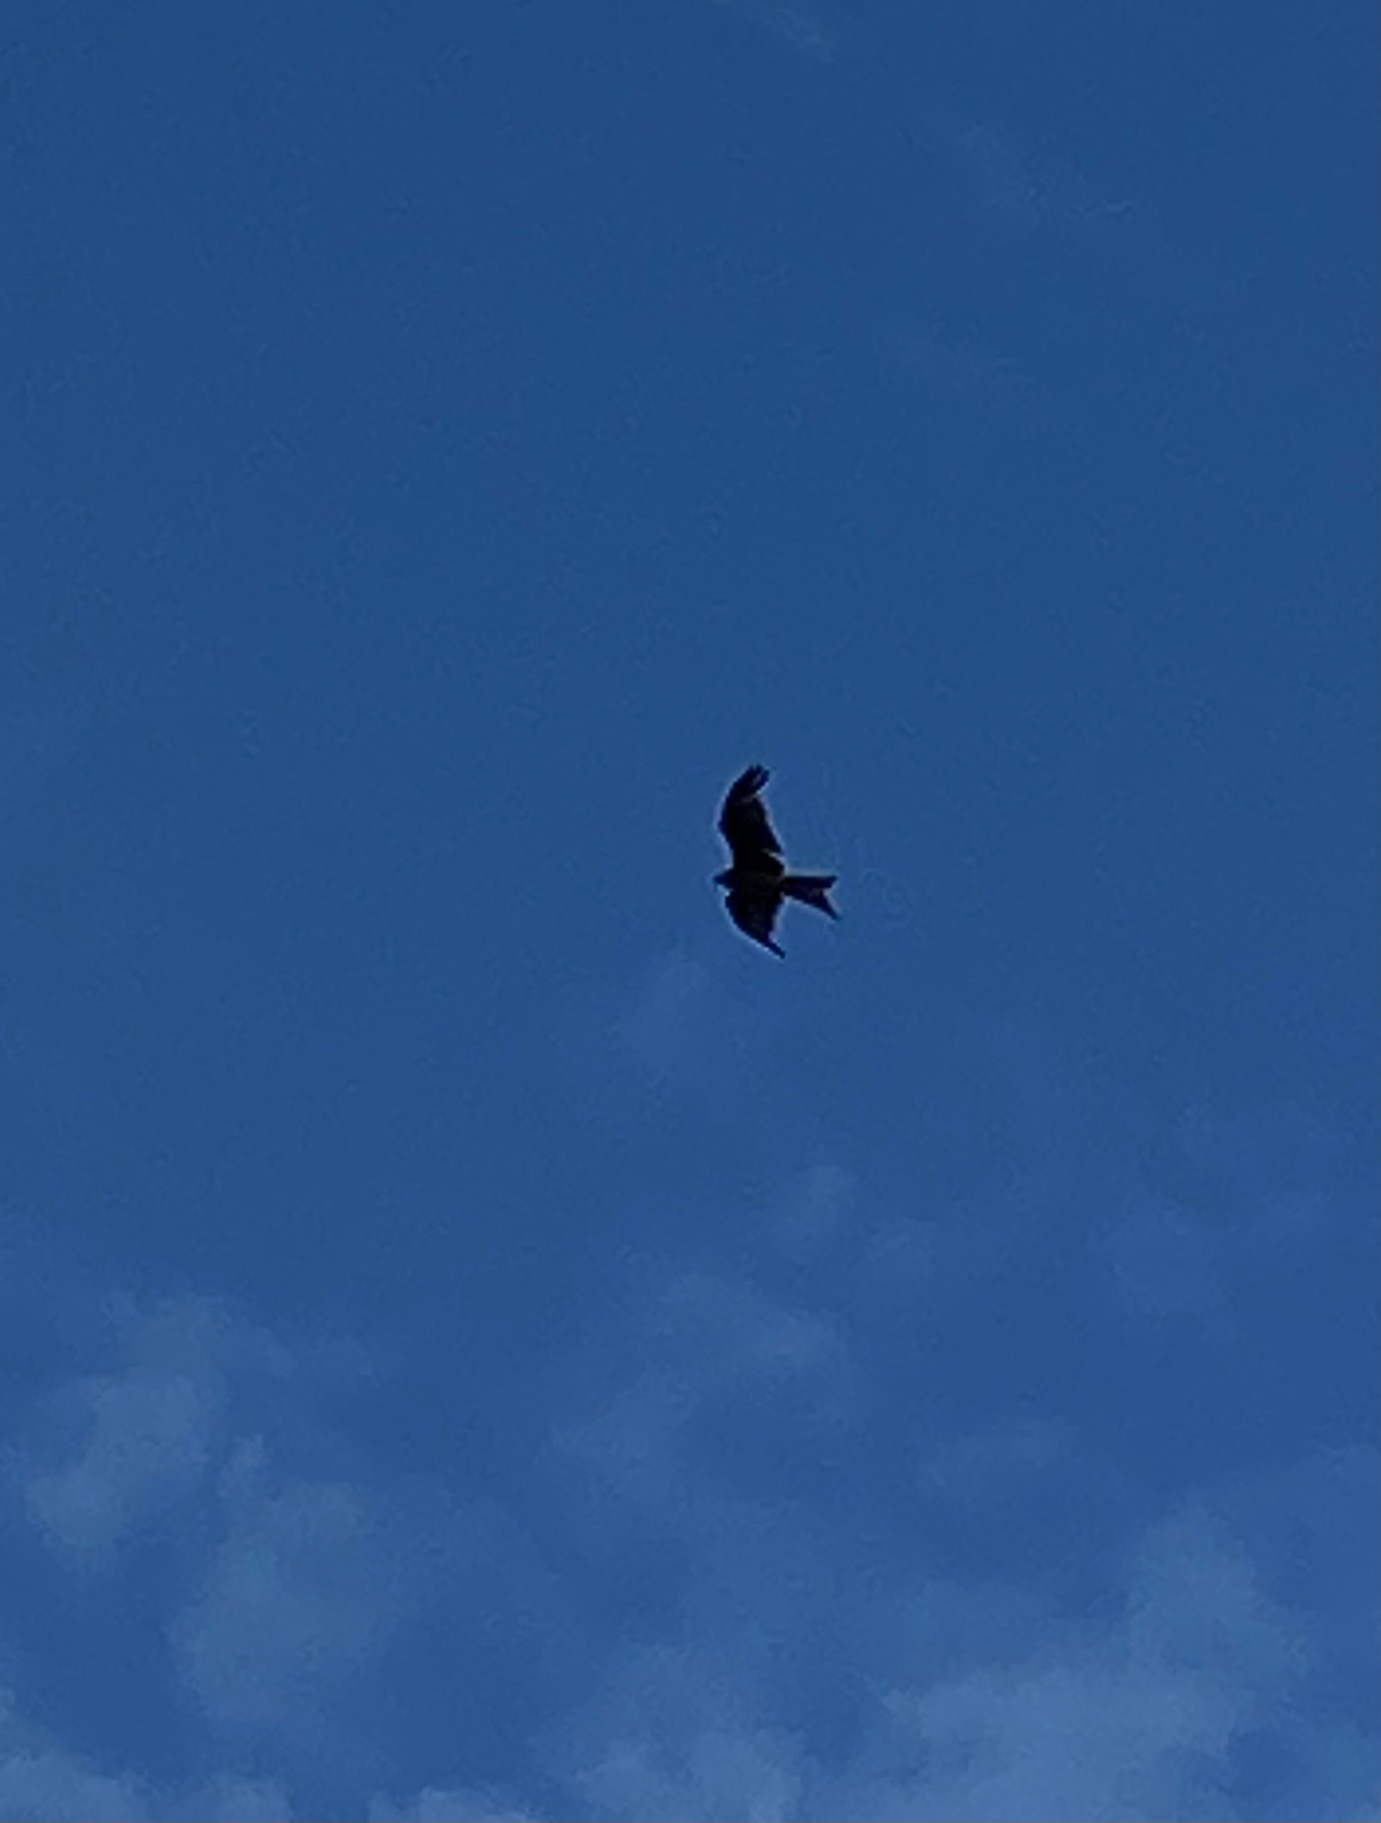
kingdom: Animalia
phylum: Chordata
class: Aves
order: Accipitriformes
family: Accipitridae
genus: Milvus
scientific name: Milvus milvus
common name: Rød glente
